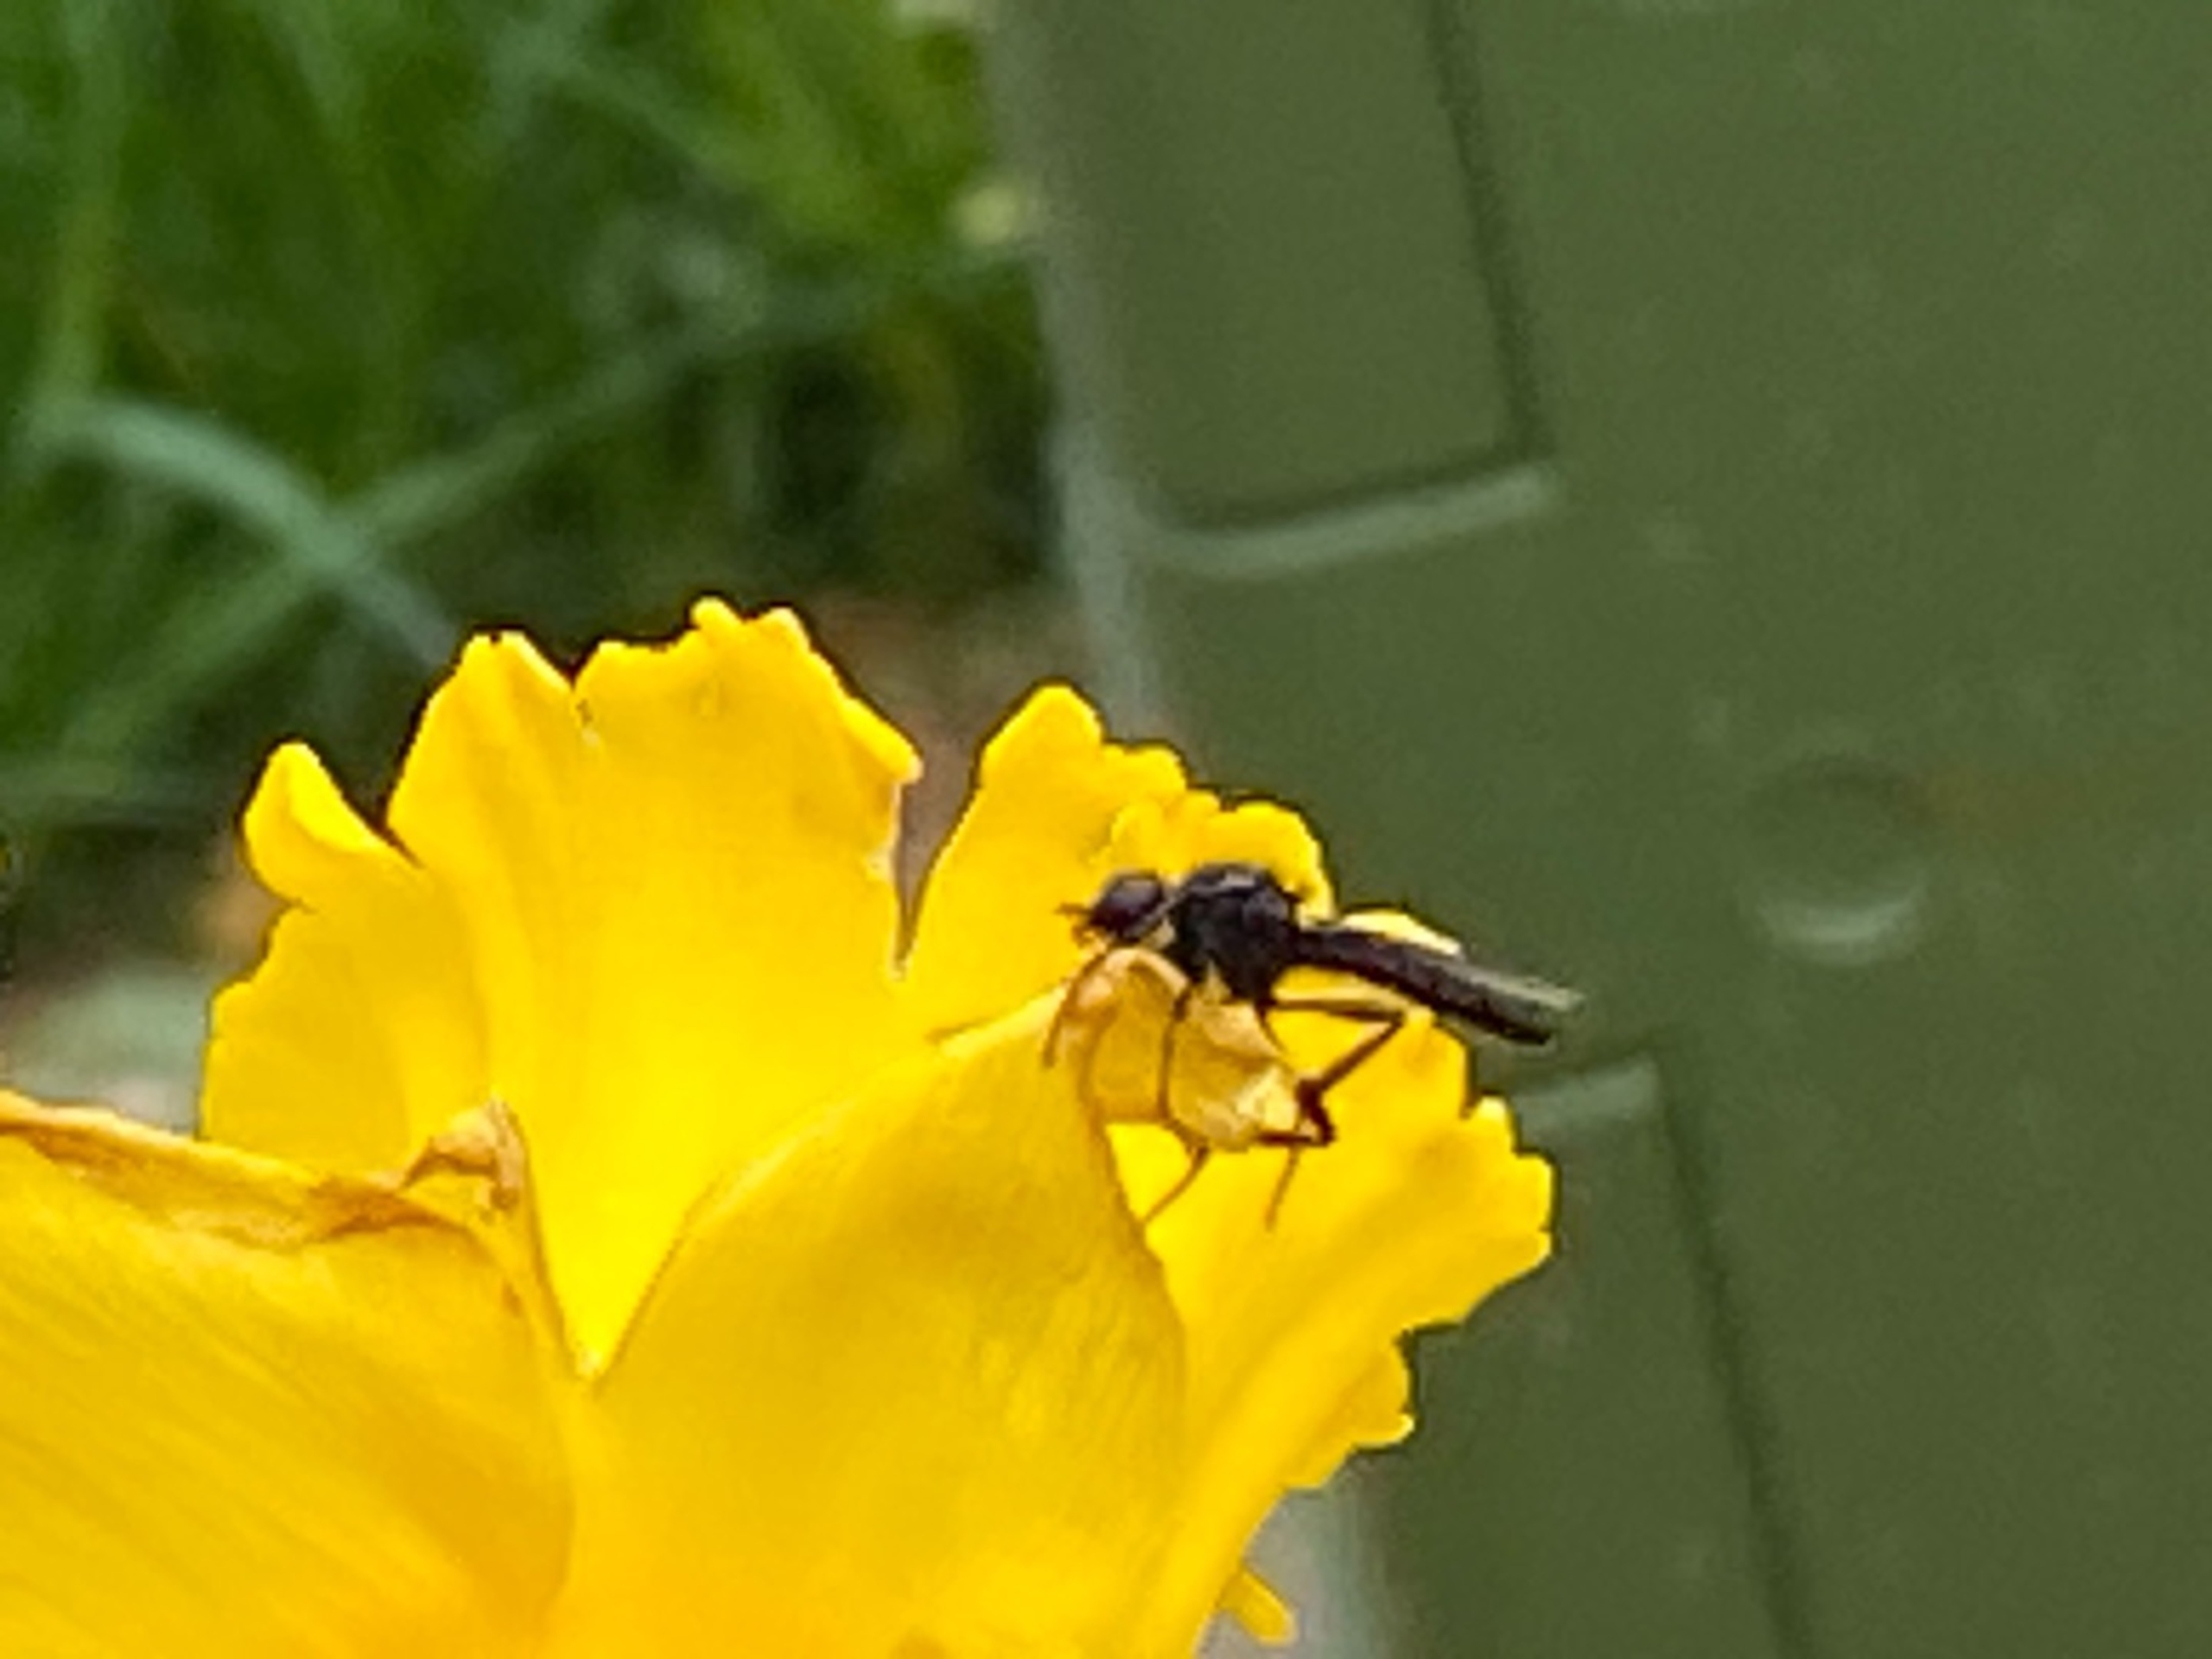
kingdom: Animalia
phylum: Arthropoda
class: Insecta
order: Diptera
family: Bibionidae
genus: Bibio
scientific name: Bibio
